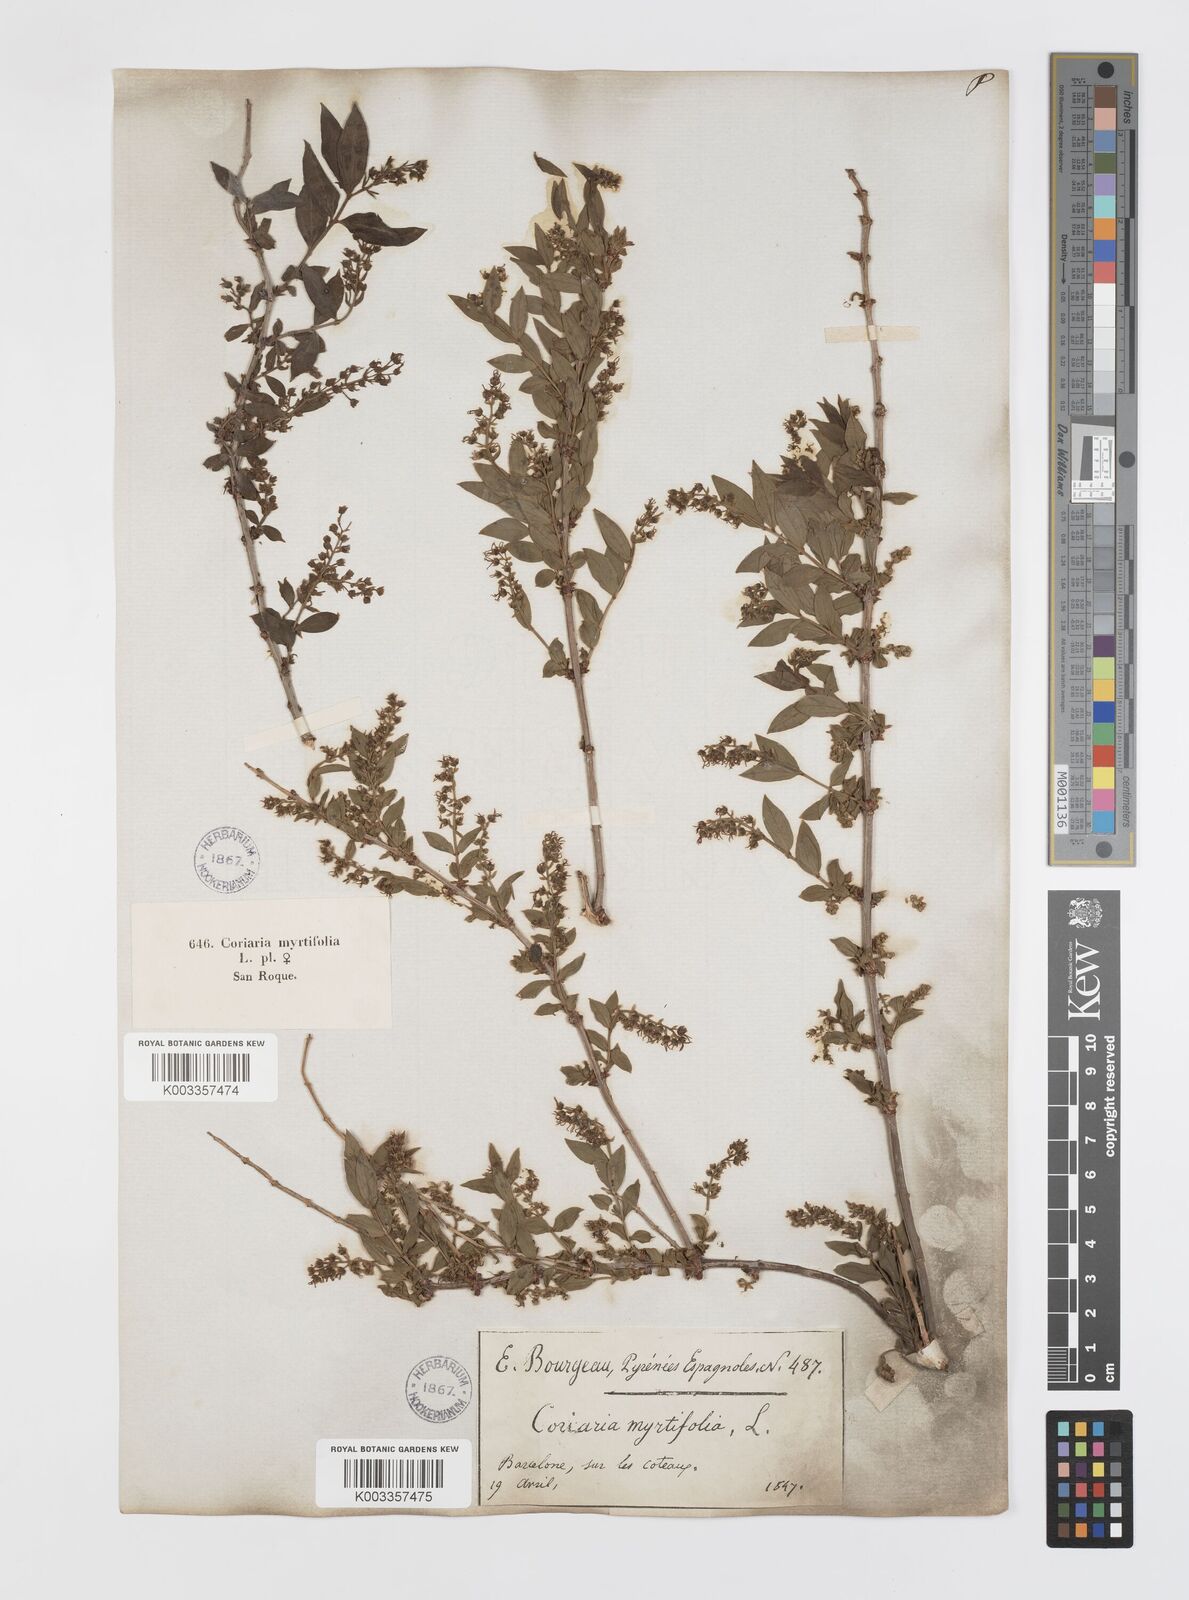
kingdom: Plantae
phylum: Tracheophyta
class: Magnoliopsida
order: Cucurbitales
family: Coriariaceae
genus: Coriaria
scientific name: Coriaria myrtifolia
